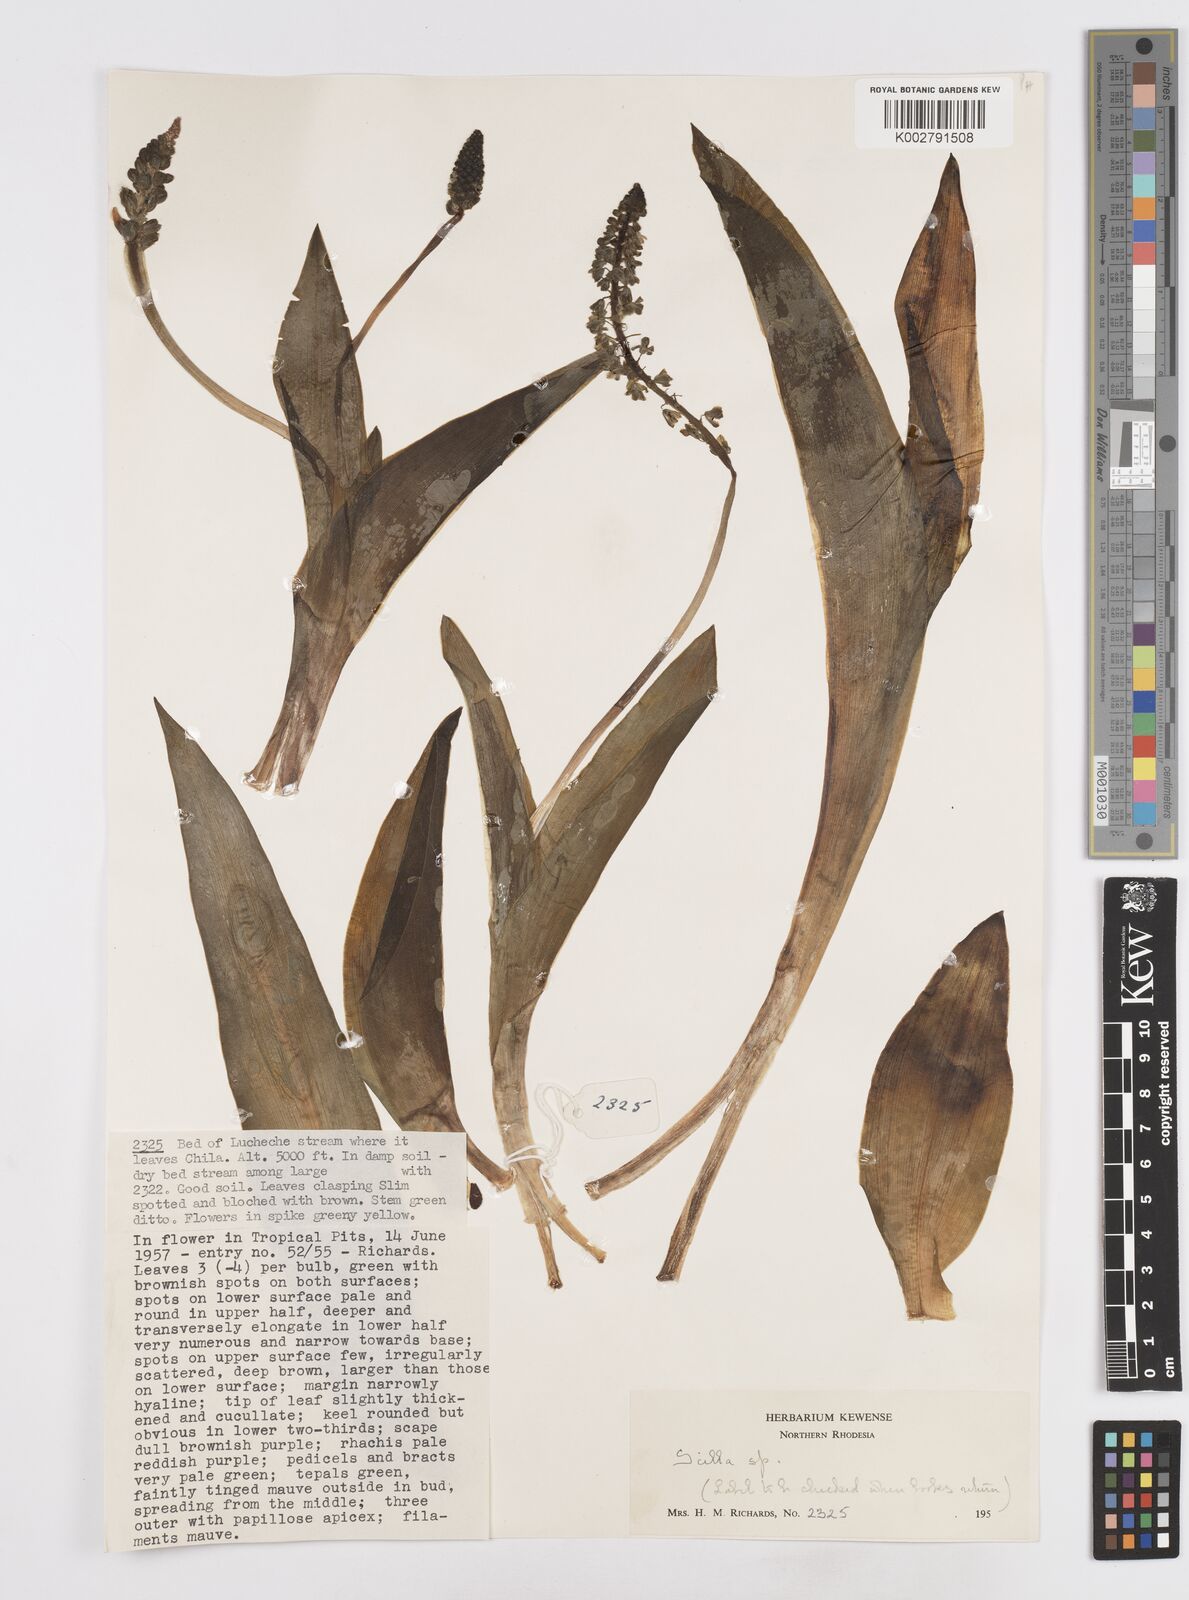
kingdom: Plantae
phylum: Tracheophyta
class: Liliopsida
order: Asparagales
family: Asparagaceae
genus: Scilla
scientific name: Scilla
